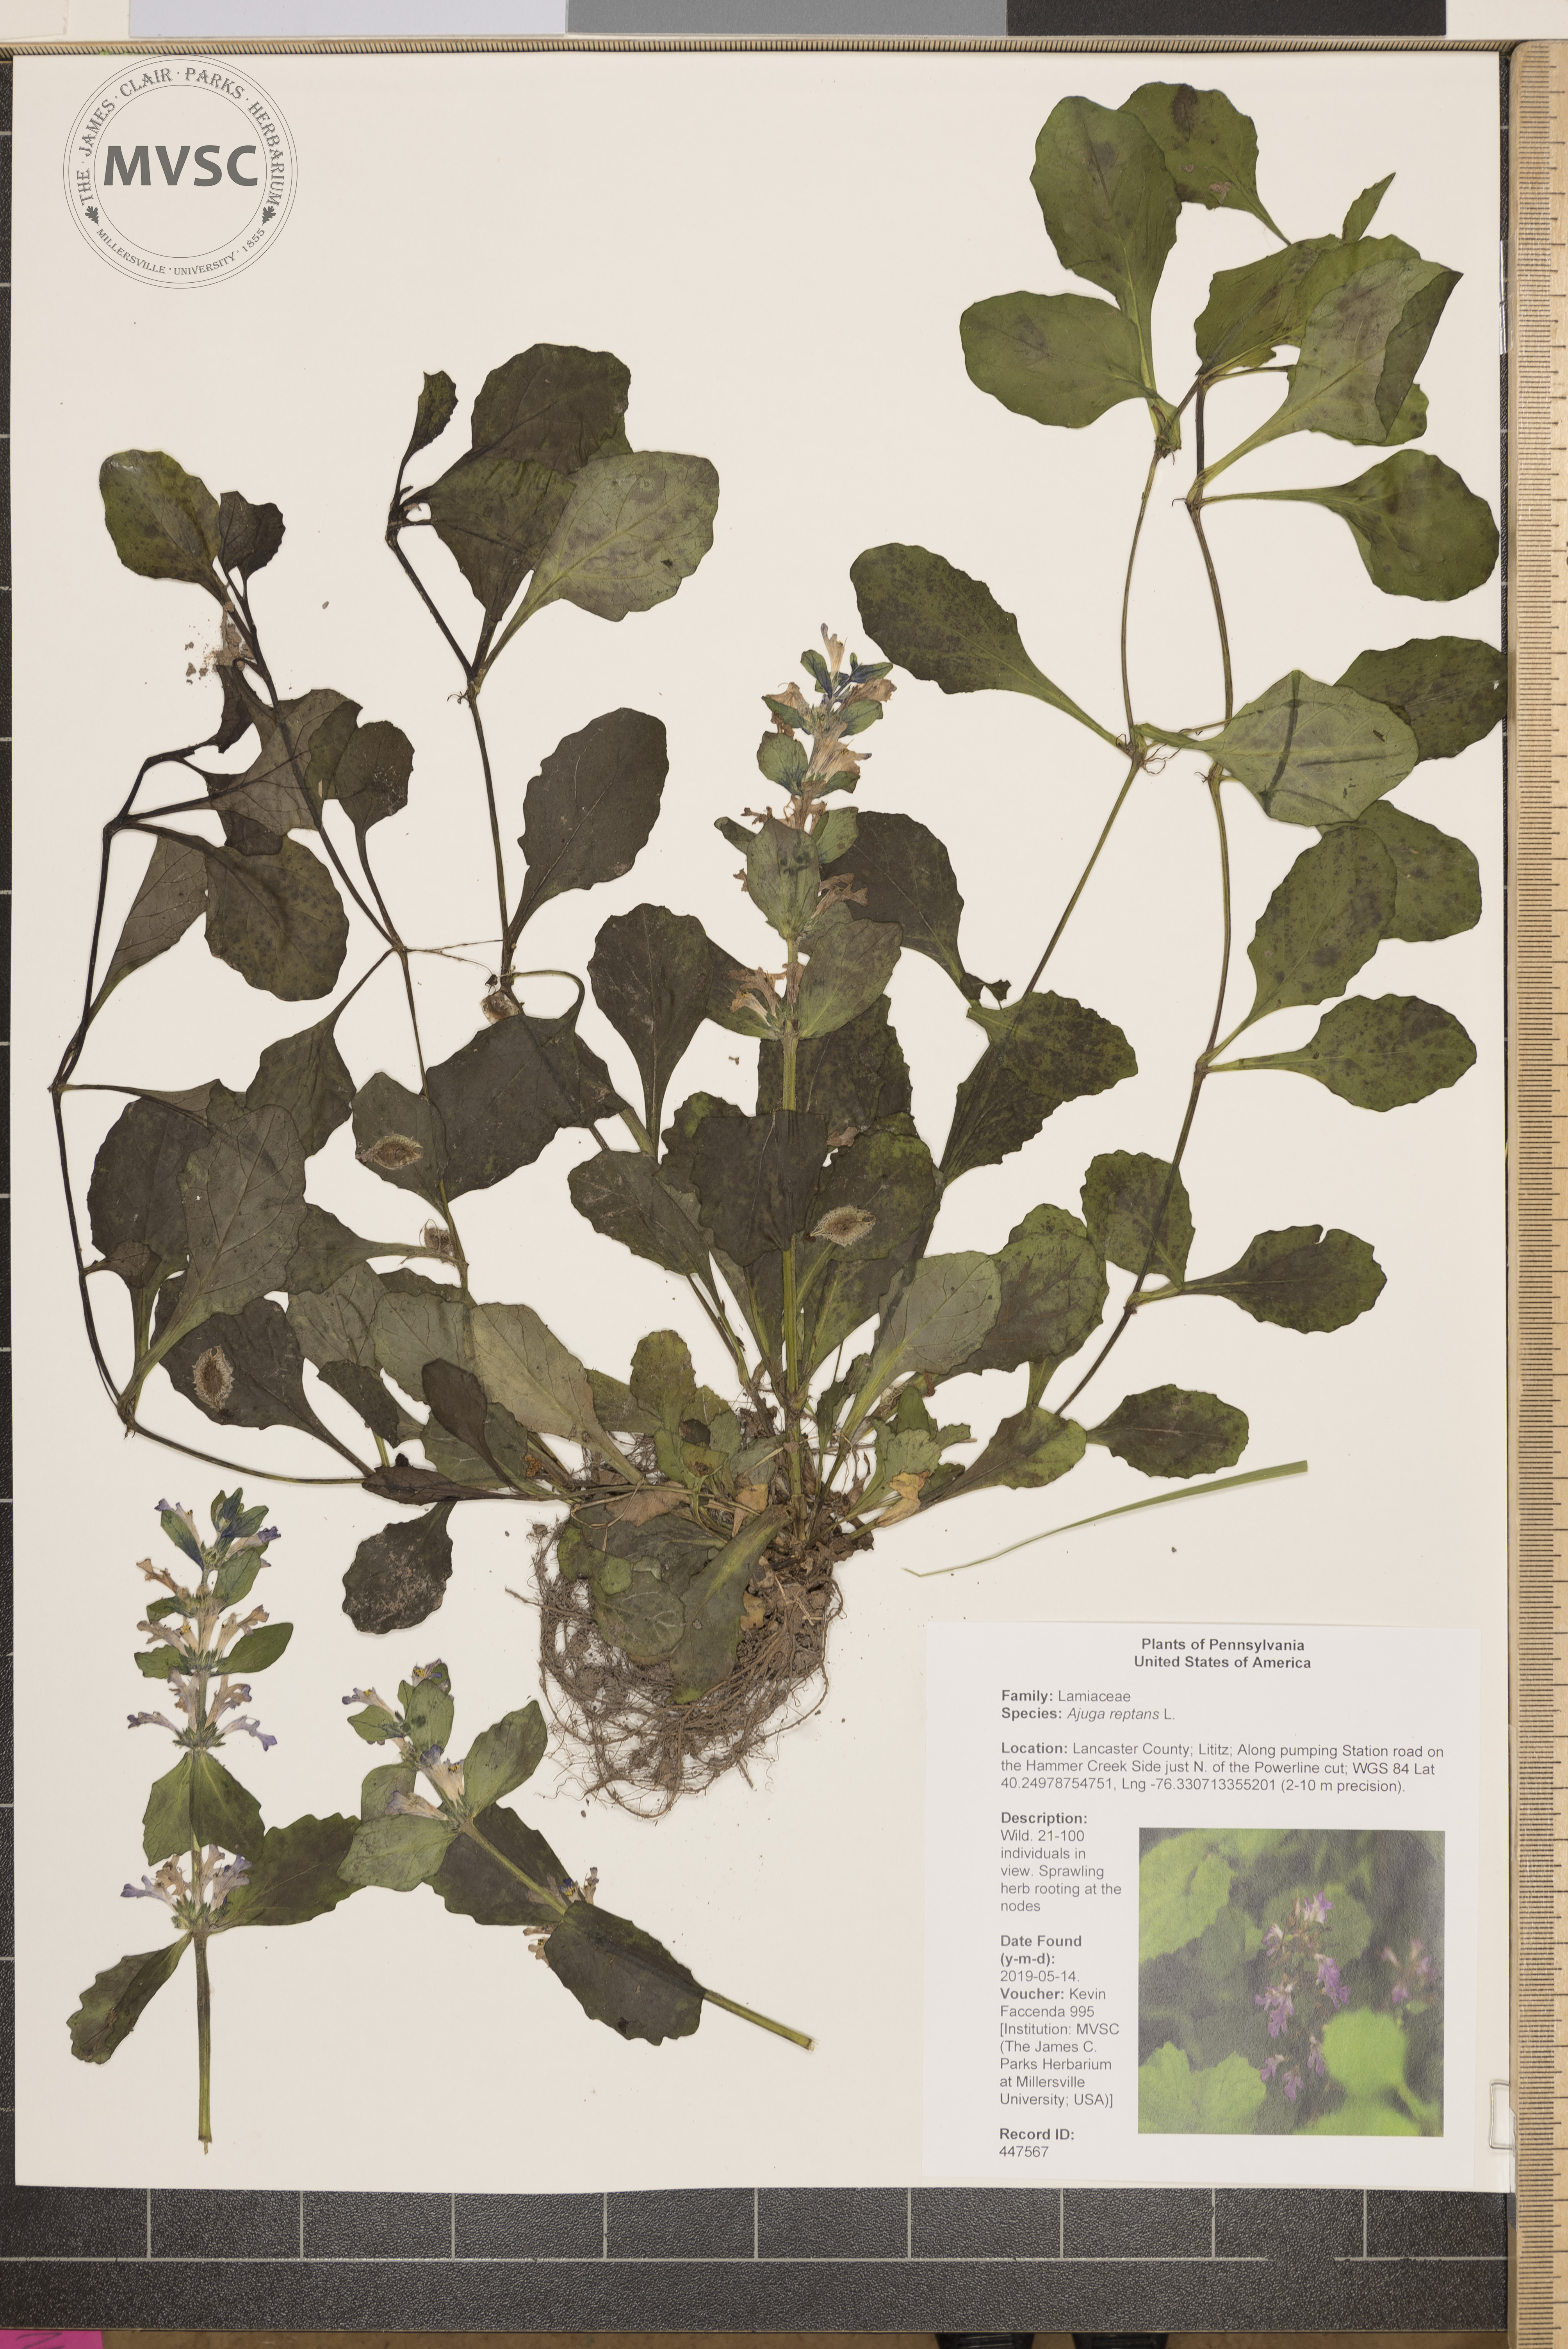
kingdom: Plantae
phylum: Tracheophyta
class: Magnoliopsida
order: Lamiales
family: Lamiaceae
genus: Ajuga
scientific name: Ajuga reptans
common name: Bugle
